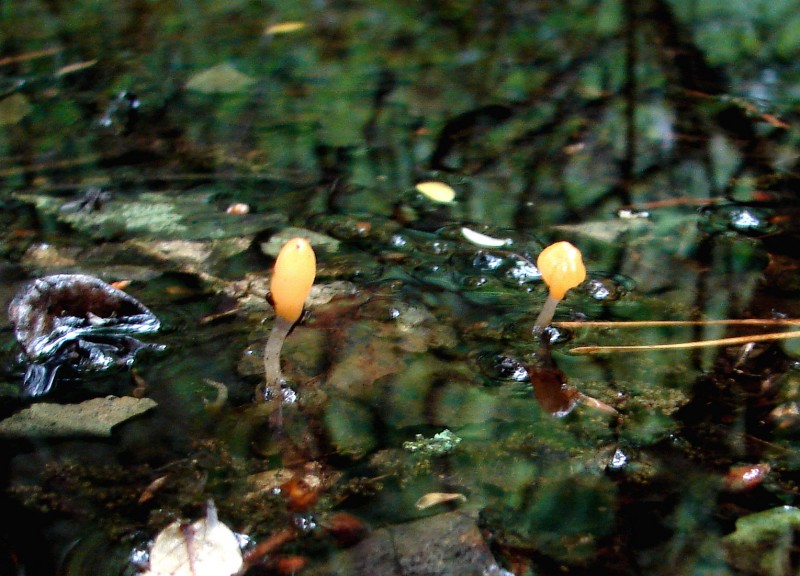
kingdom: Fungi
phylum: Ascomycota
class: Leotiomycetes
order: Helotiales
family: Cenangiaceae
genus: Mitrula
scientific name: Mitrula paludosa
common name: gul nøkketunge
